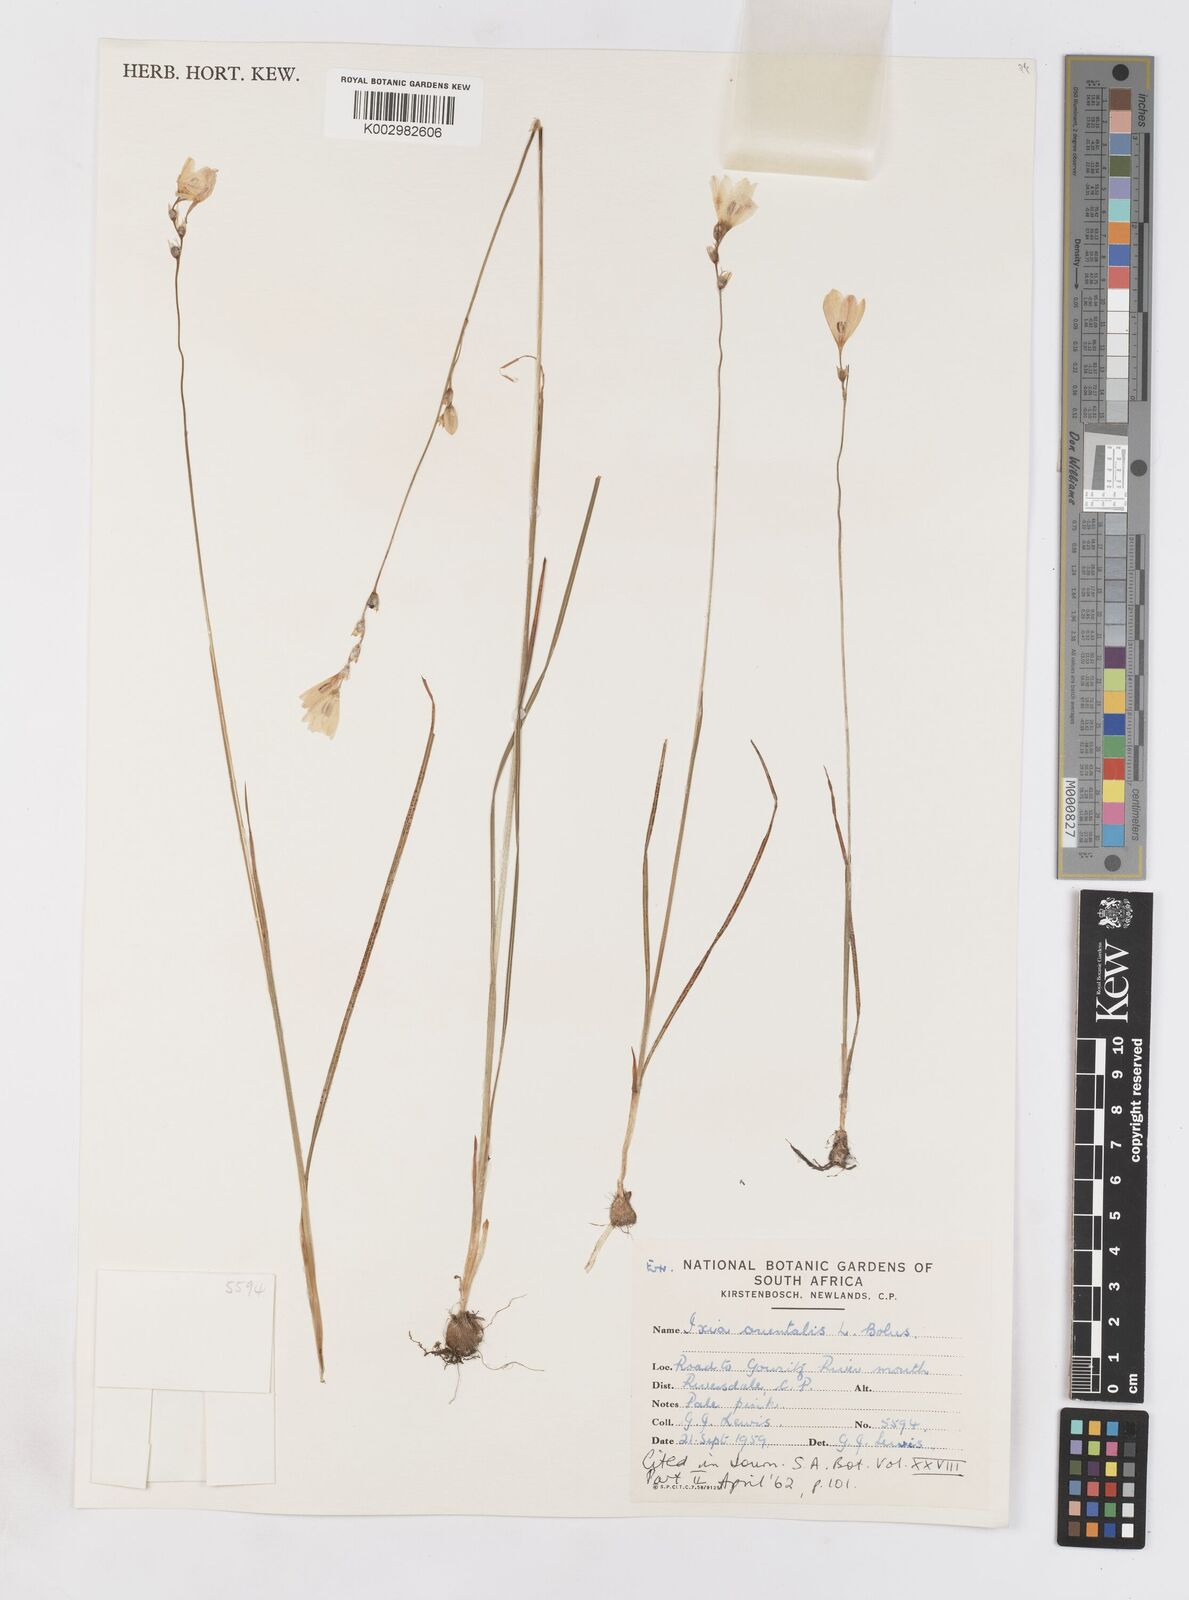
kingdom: Plantae
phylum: Tracheophyta
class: Liliopsida
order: Asparagales
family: Iridaceae
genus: Ixia
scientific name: Ixia orientalis
